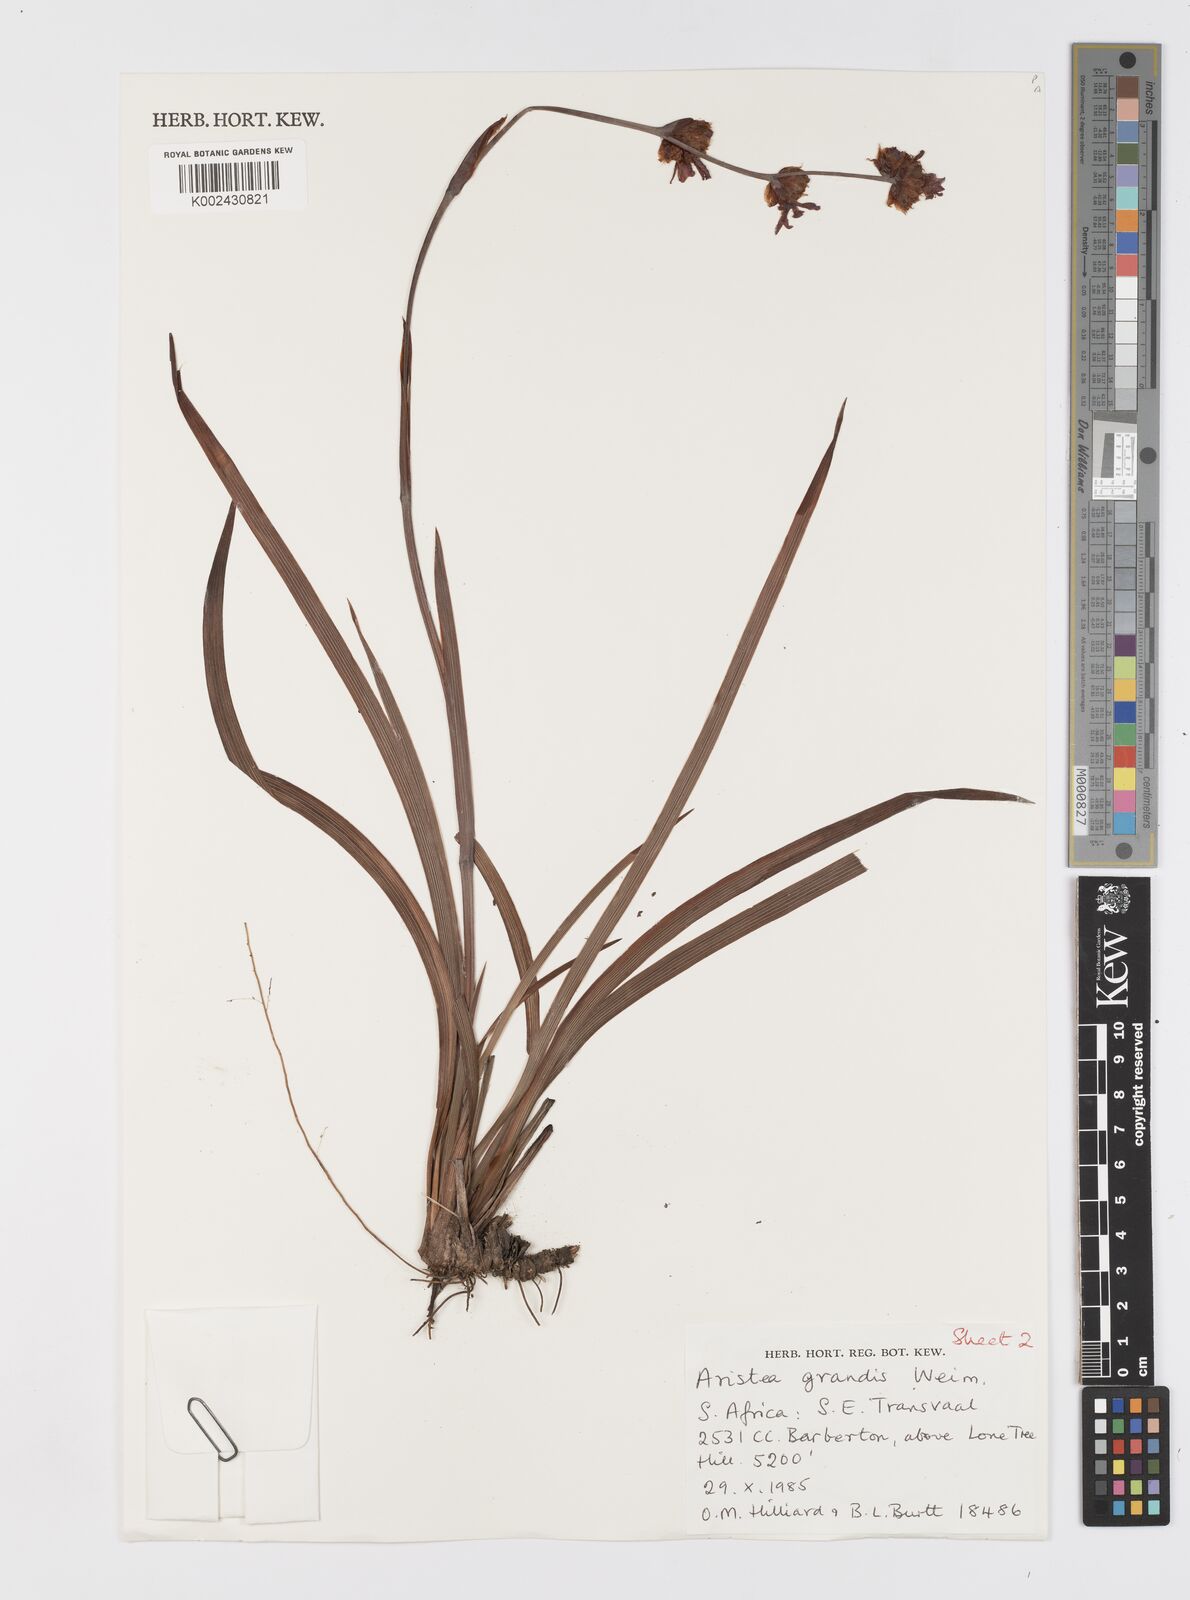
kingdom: Plantae
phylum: Tracheophyta
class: Liliopsida
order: Asparagales
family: Iridaceae
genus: Aristea
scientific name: Aristea grandis
